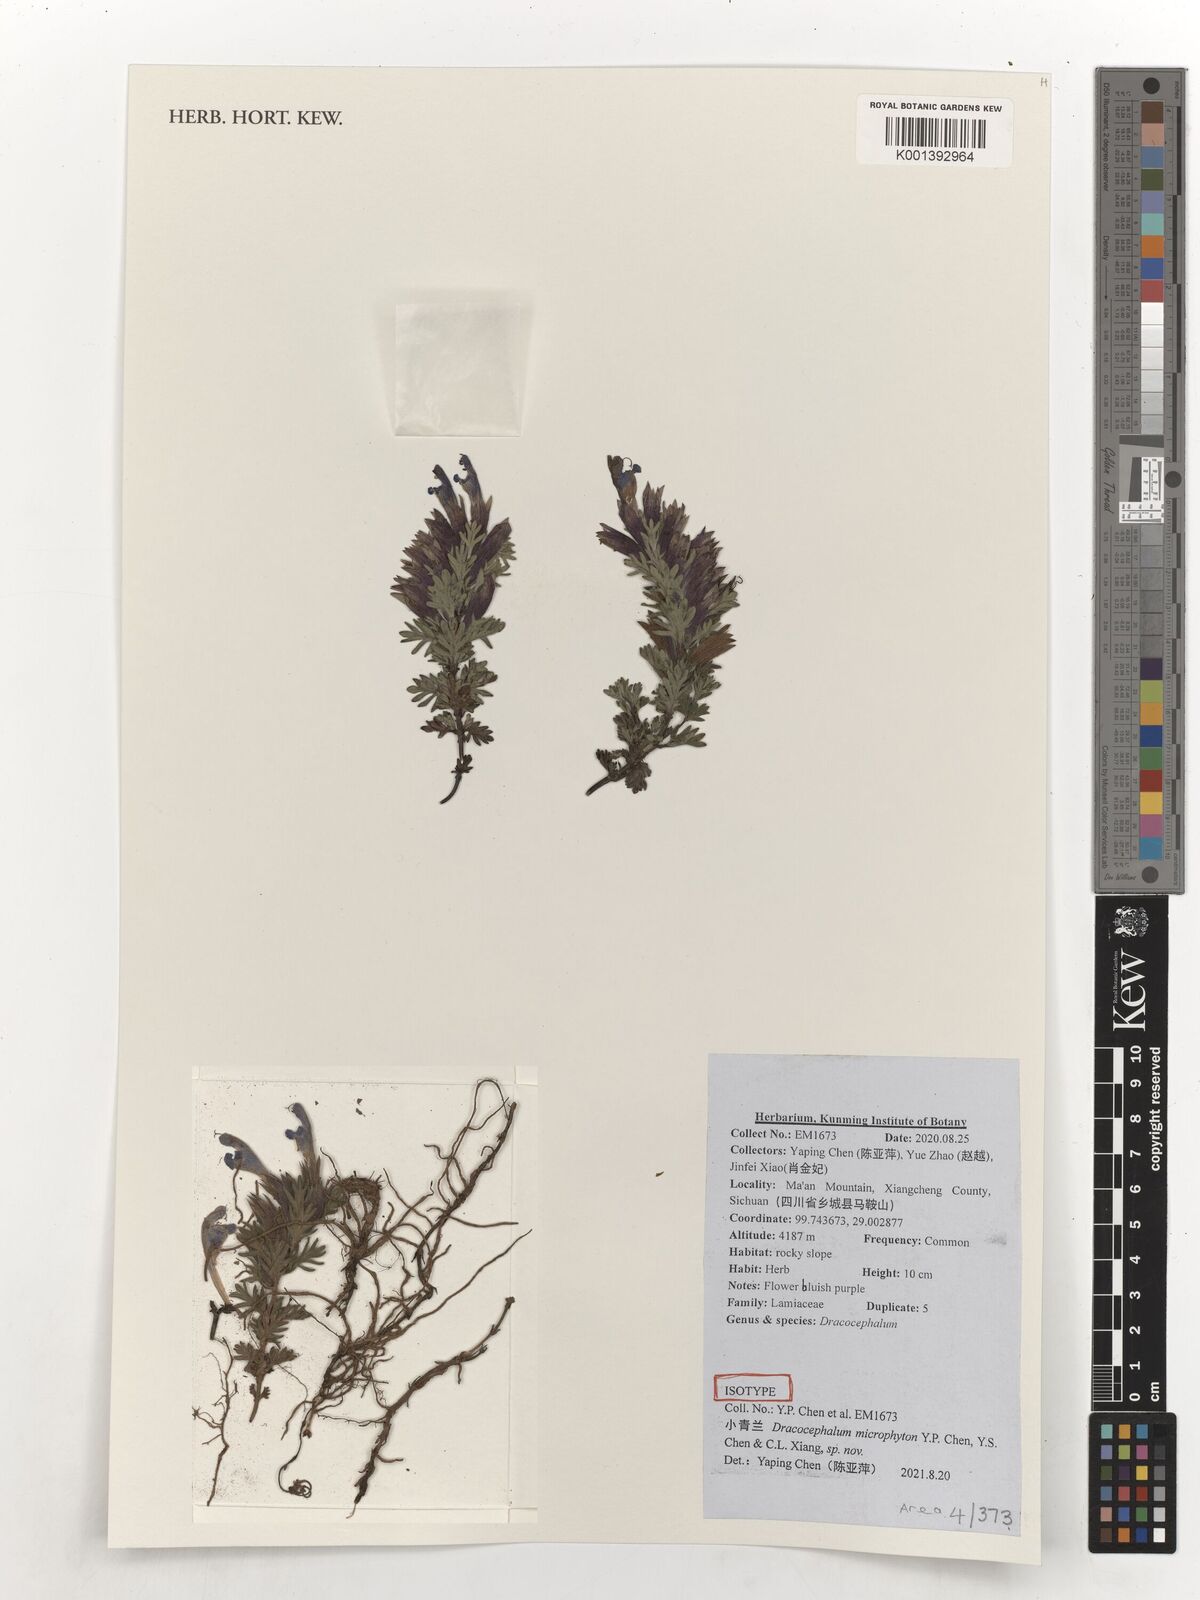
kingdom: Plantae
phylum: Tracheophyta
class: Magnoliopsida
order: Lamiales
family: Lamiaceae
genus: Dracocephalum
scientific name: Dracocephalum
